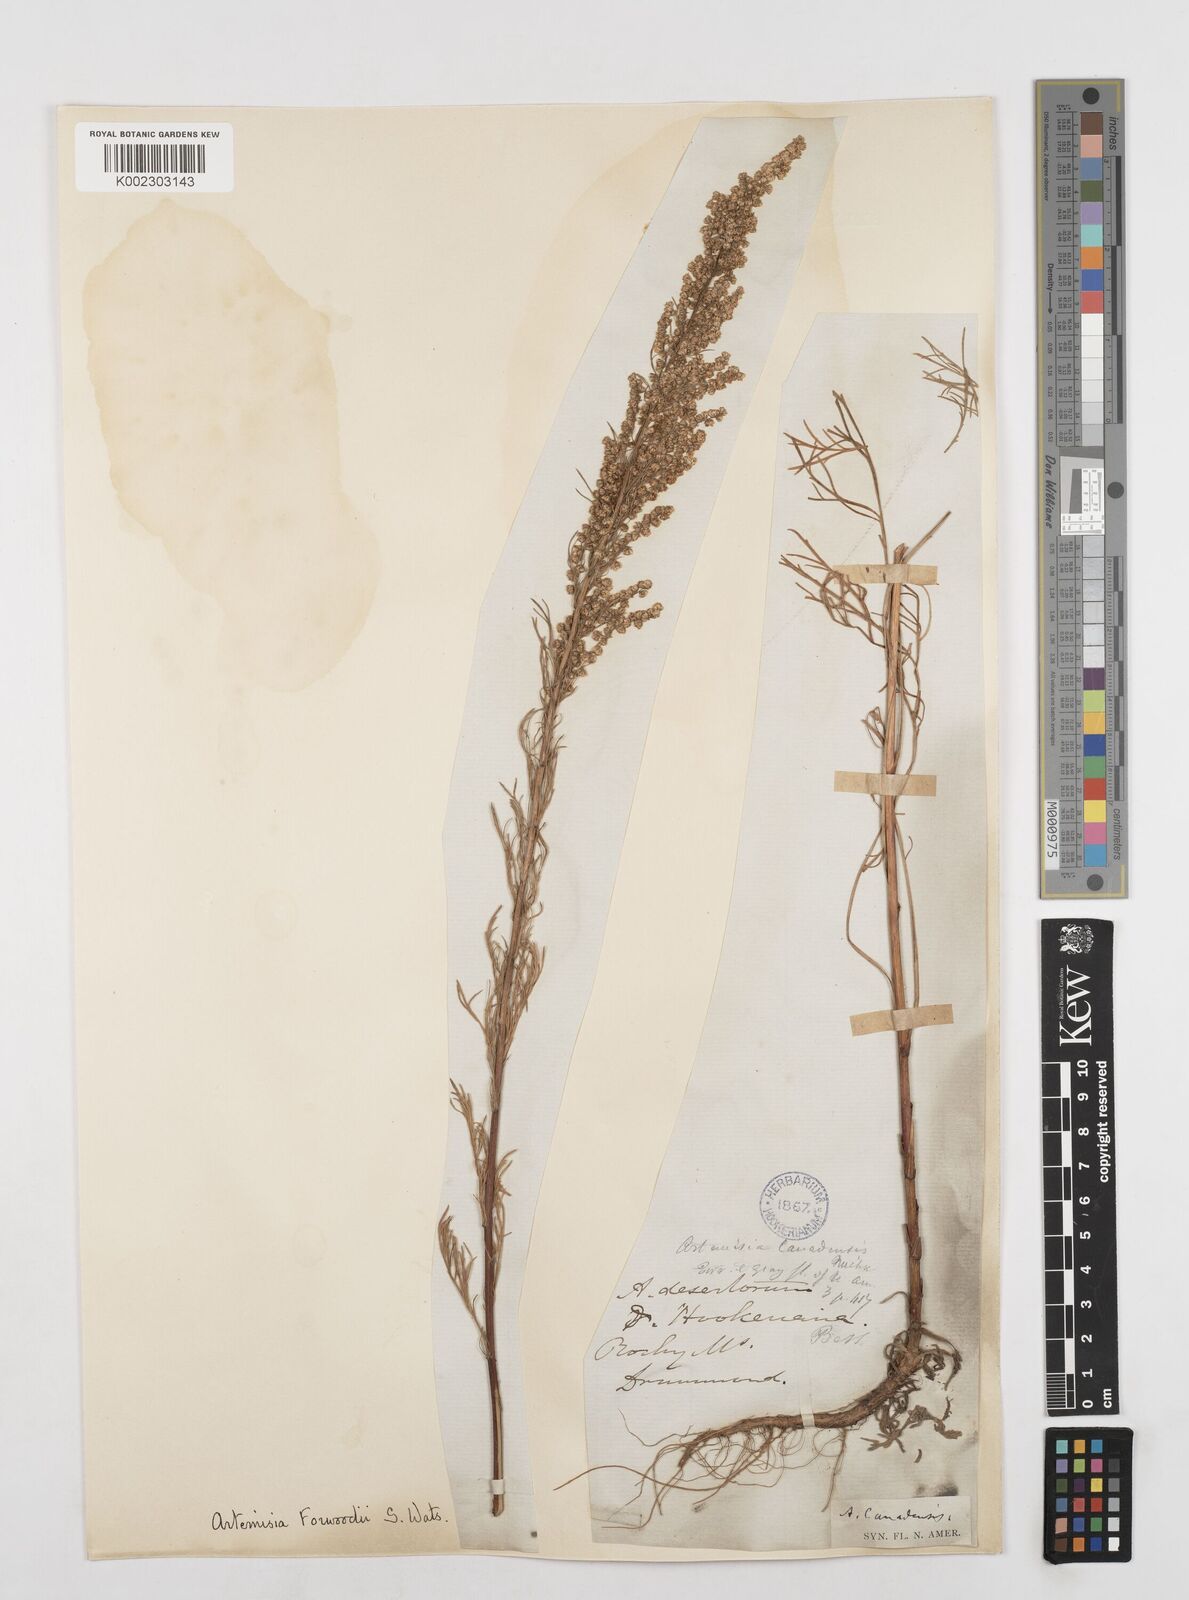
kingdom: Plantae
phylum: Tracheophyta
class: Magnoliopsida
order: Asterales
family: Asteraceae
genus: Artemisia
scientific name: Artemisia campestris
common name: Field wormwood
